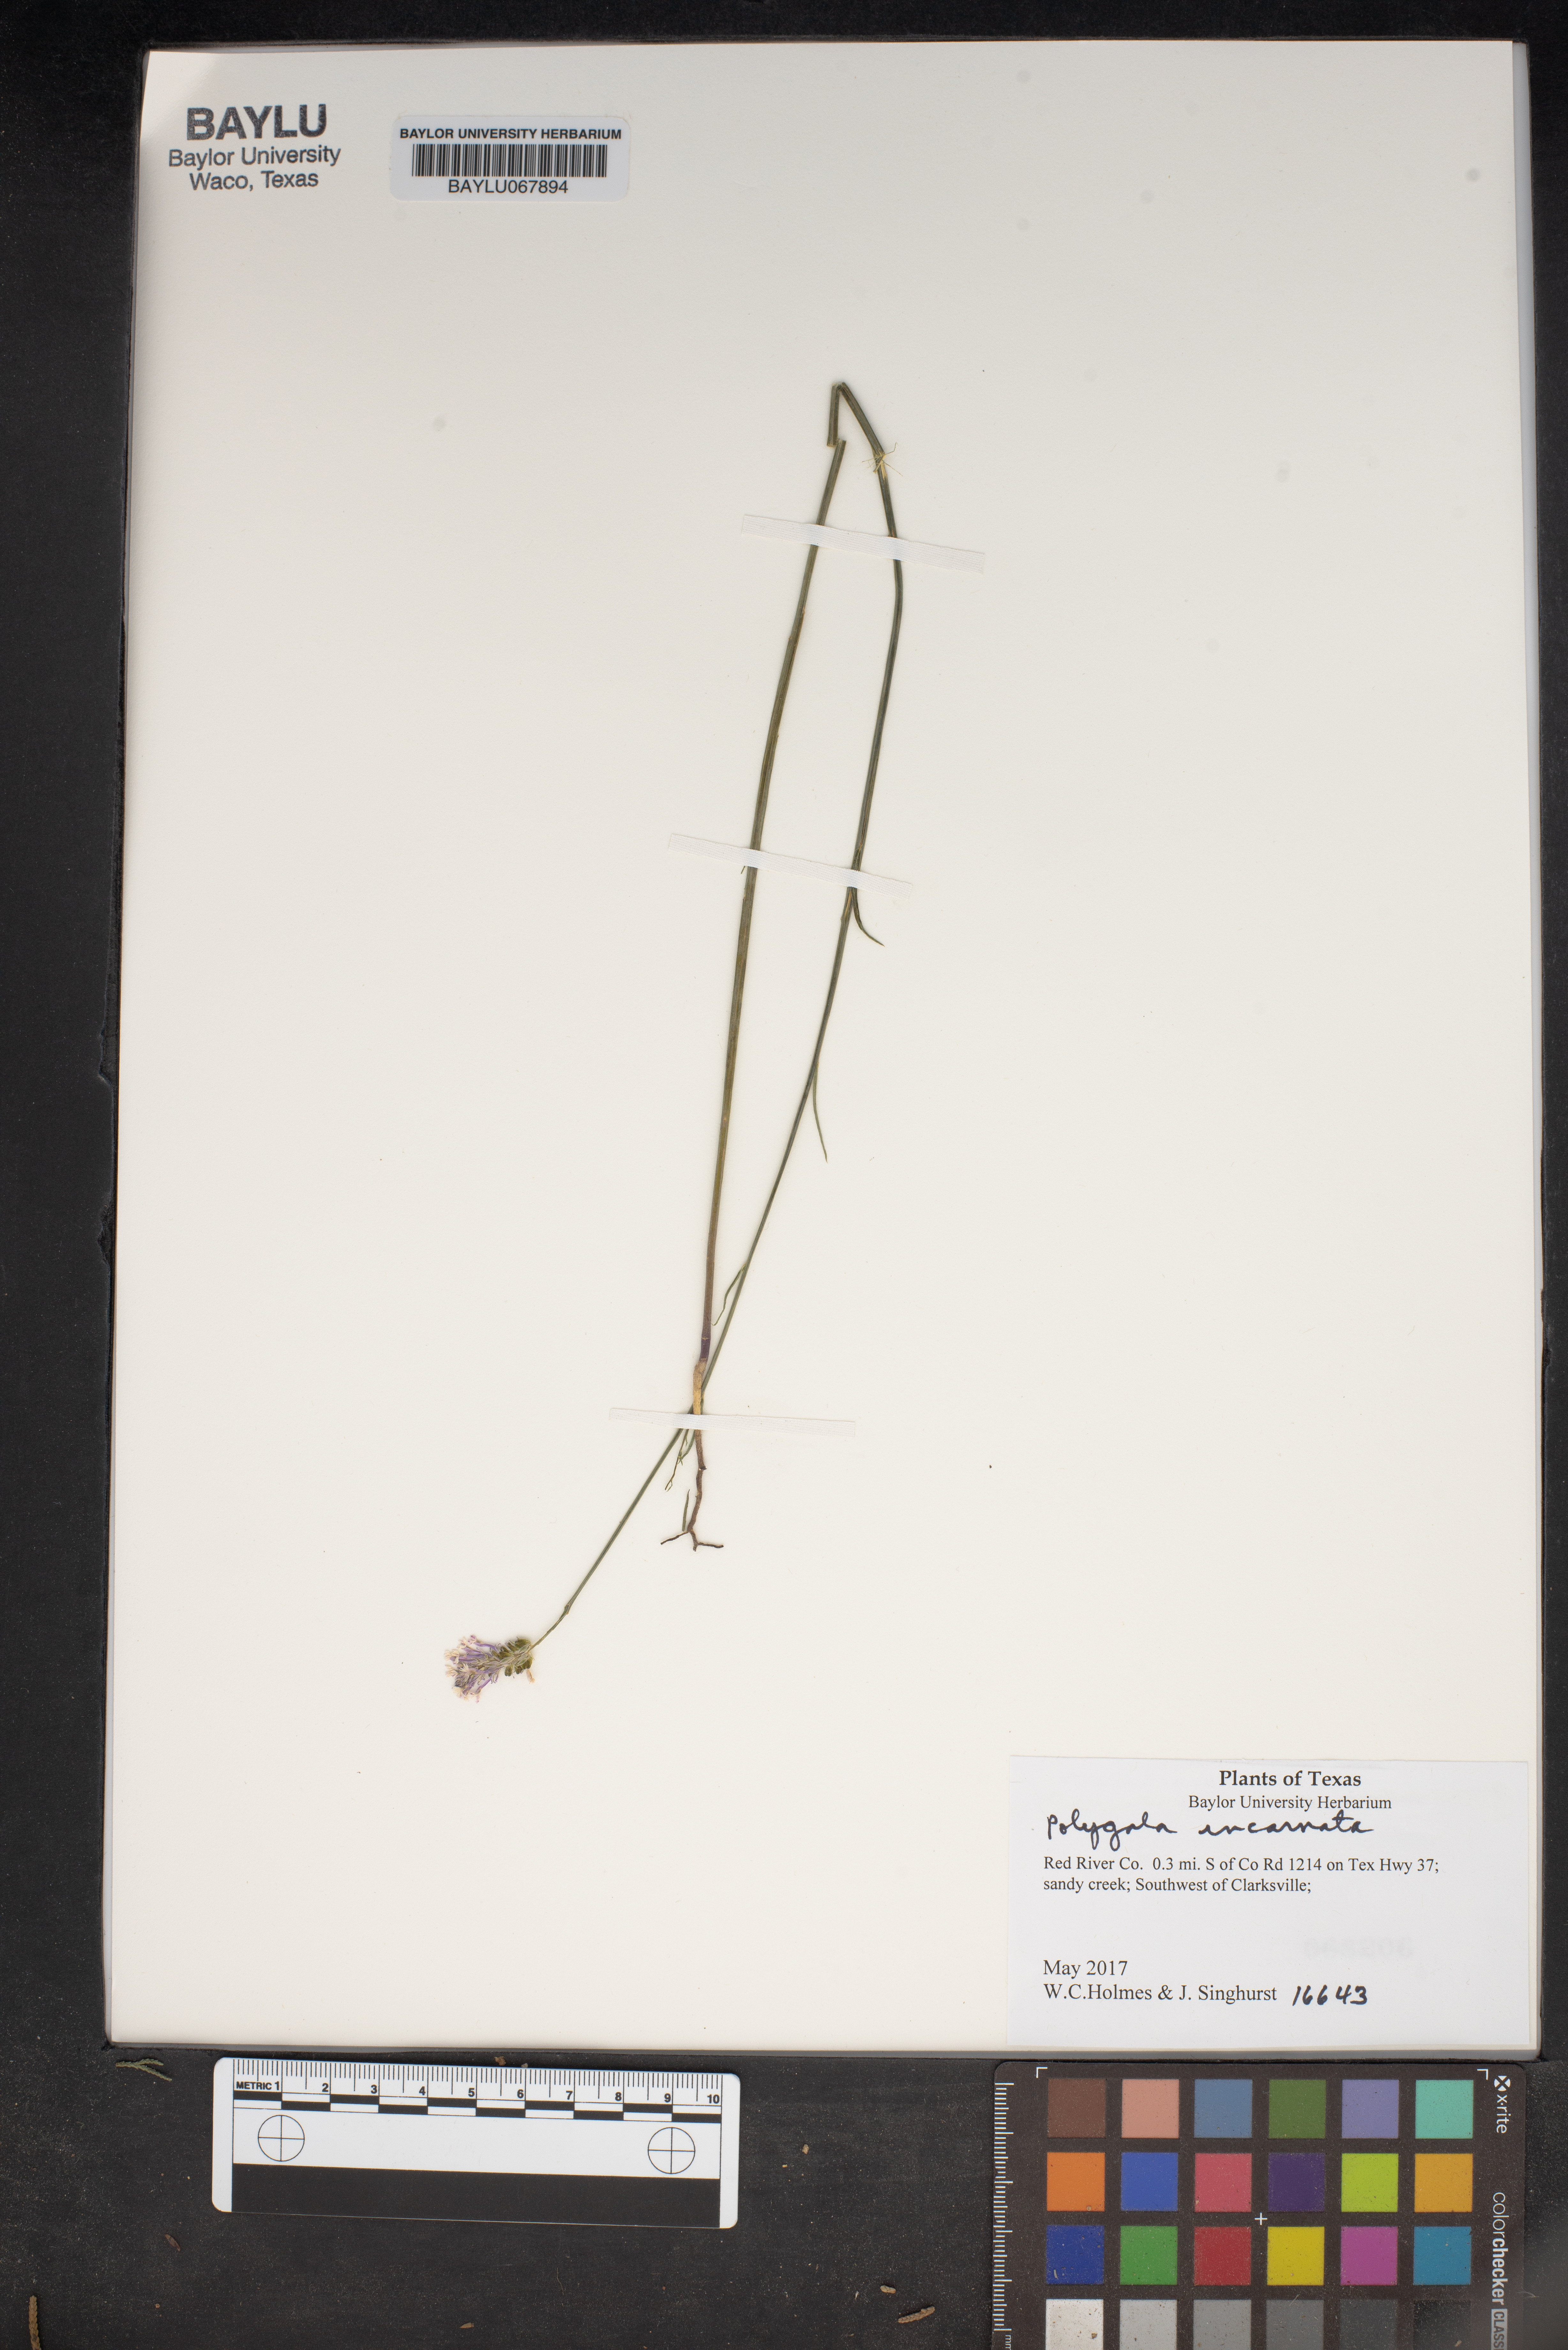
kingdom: Plantae
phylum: Tracheophyta
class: Magnoliopsida
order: Fabales
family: Polygalaceae
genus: Polygala
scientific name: Polygala incarnata
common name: Pink milkwort
